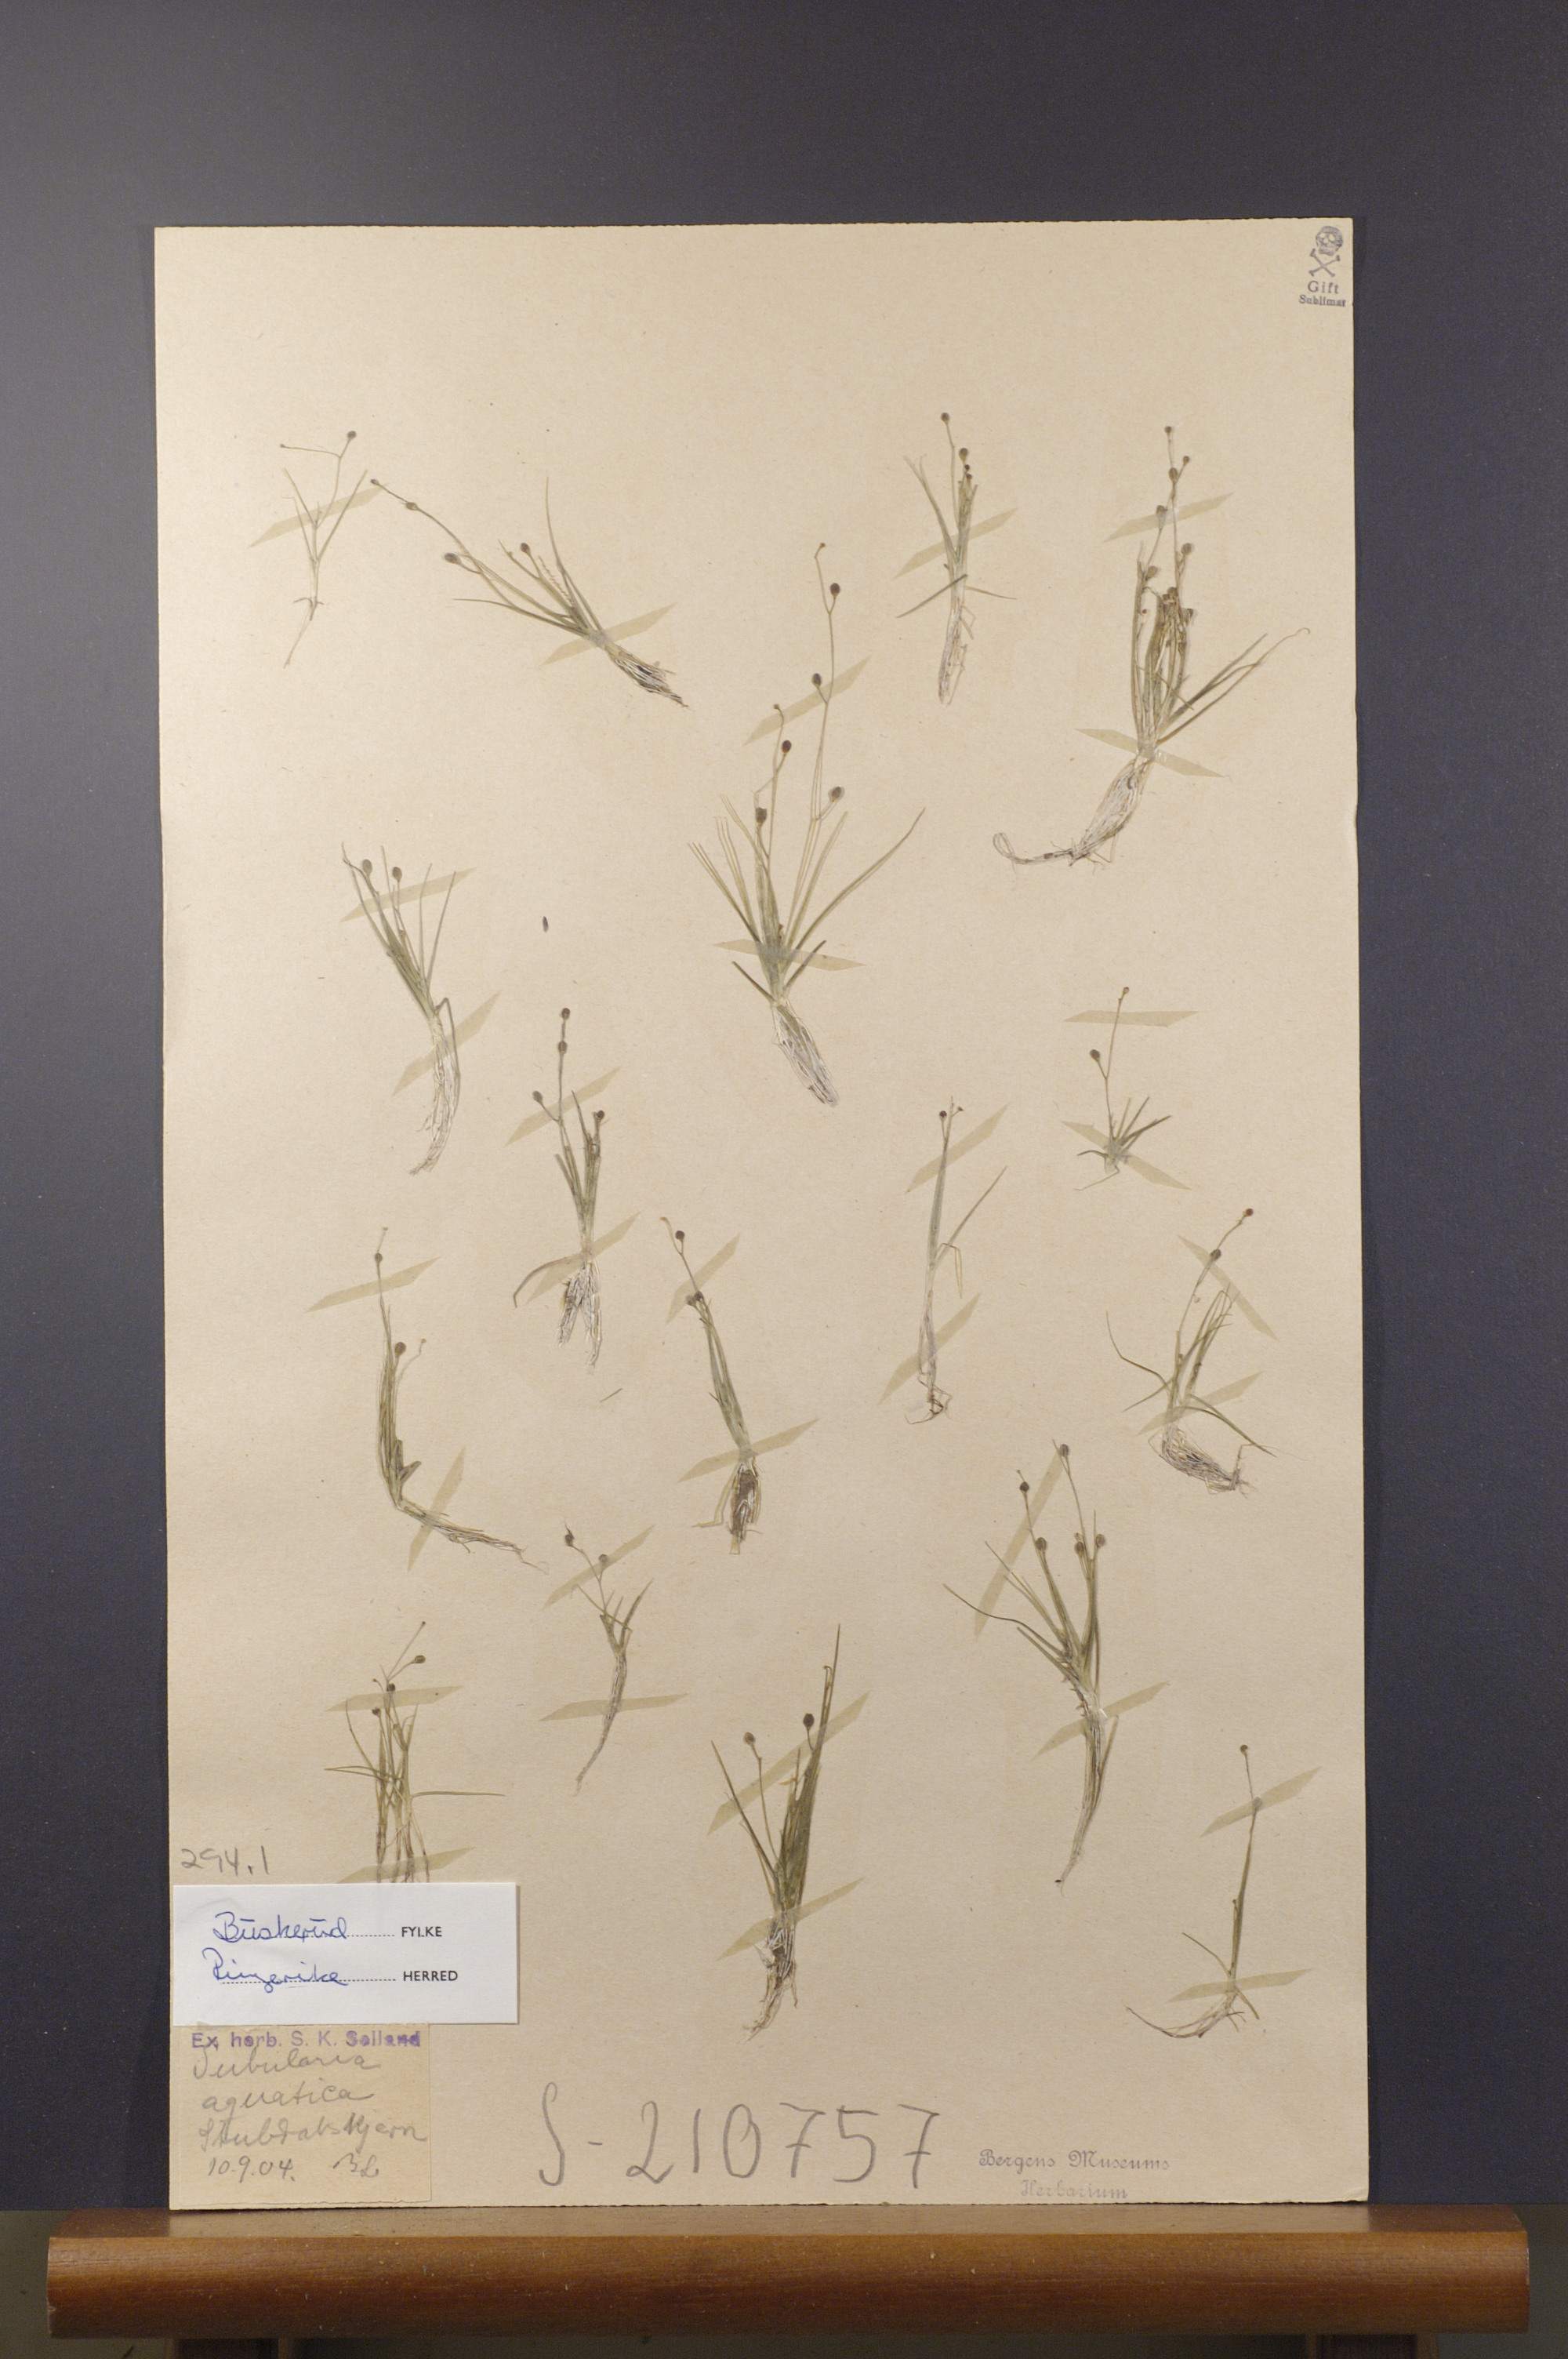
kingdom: Plantae
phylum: Tracheophyta
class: Magnoliopsida
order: Brassicales
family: Brassicaceae
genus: Subularia
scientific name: Subularia aquatica
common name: Awlwort
